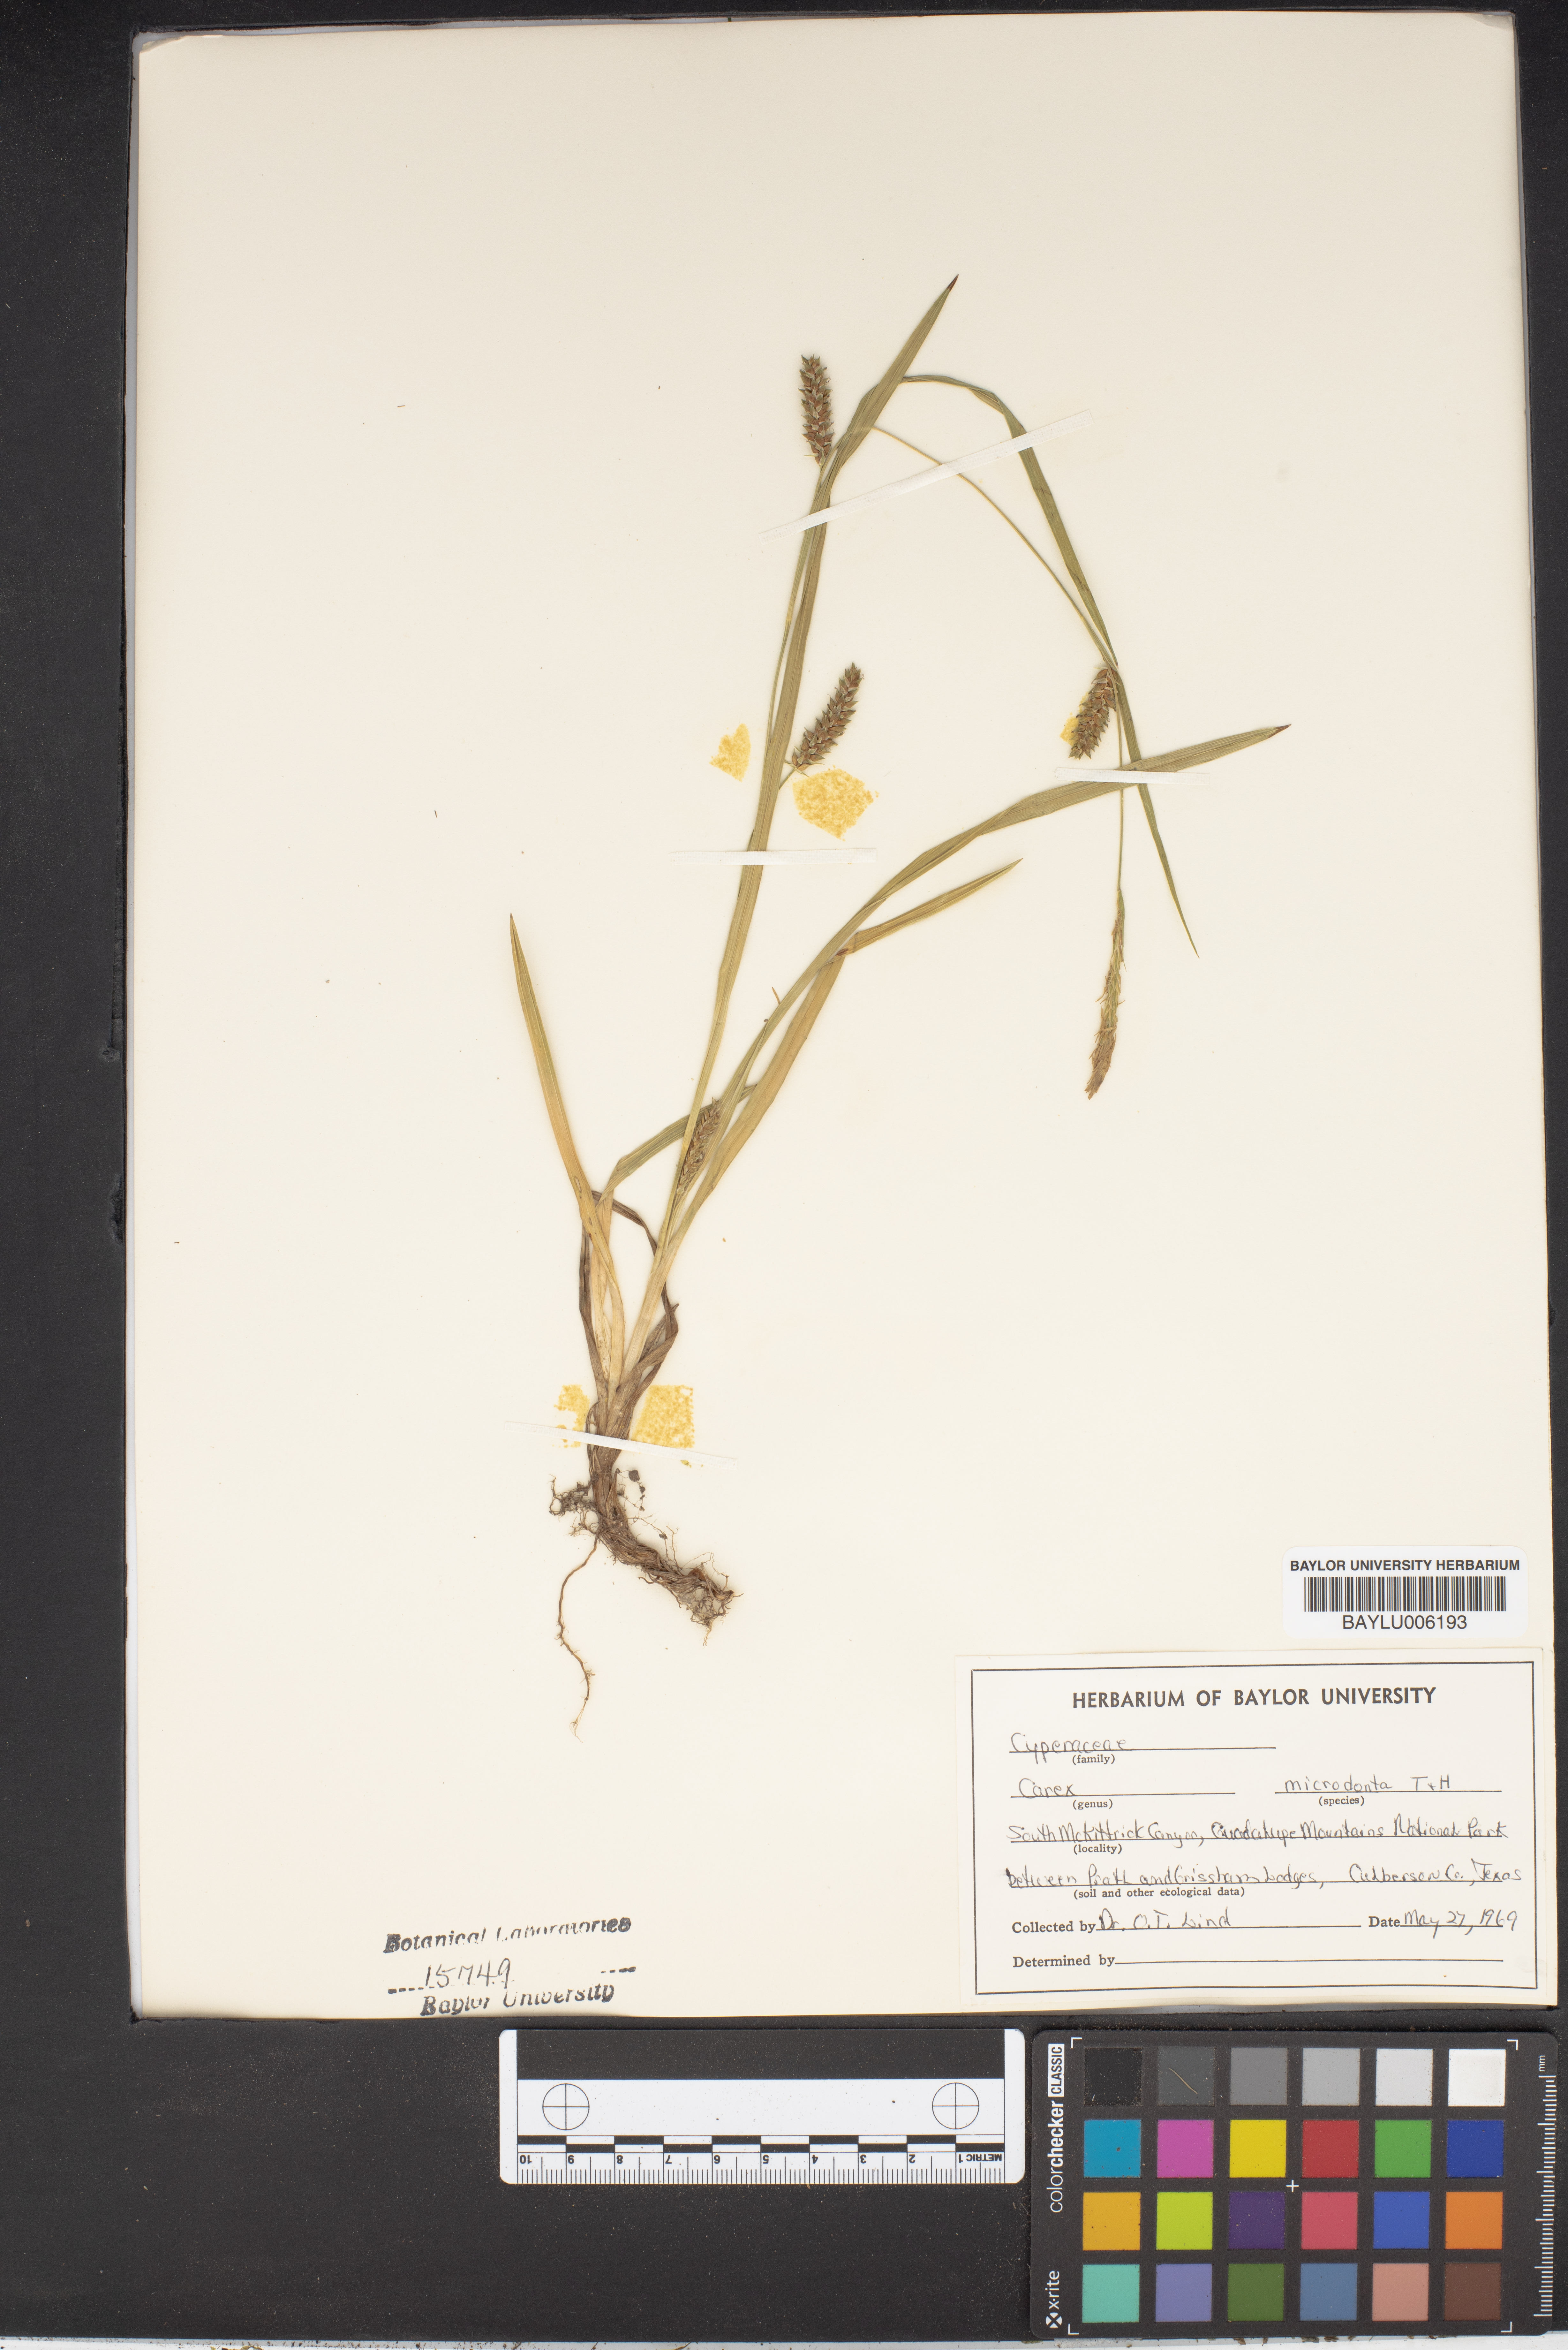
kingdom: Plantae
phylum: Tracheophyta
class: Liliopsida
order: Poales
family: Cyperaceae
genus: Carex
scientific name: Carex microdonta
